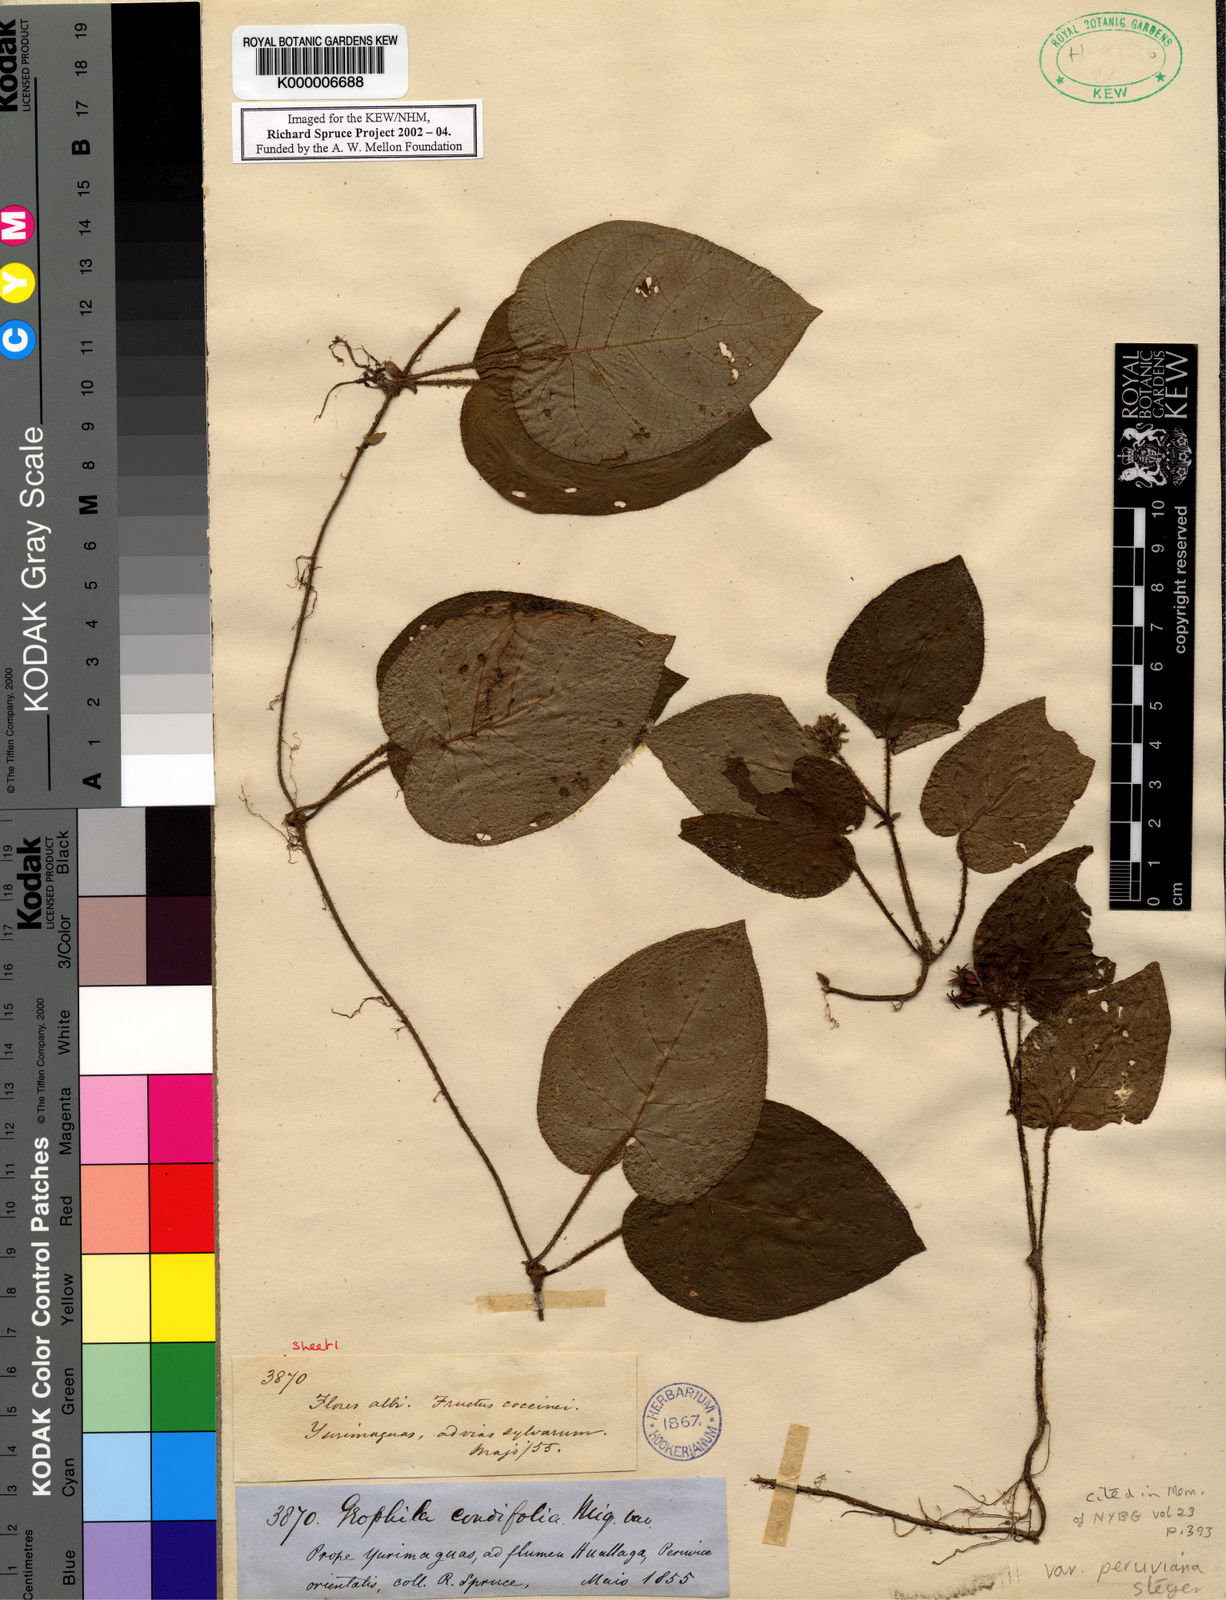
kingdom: Plantae
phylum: Tracheophyta
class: Magnoliopsida
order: Gentianales
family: Rubiaceae
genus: Geophila
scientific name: Geophila cordifolia
